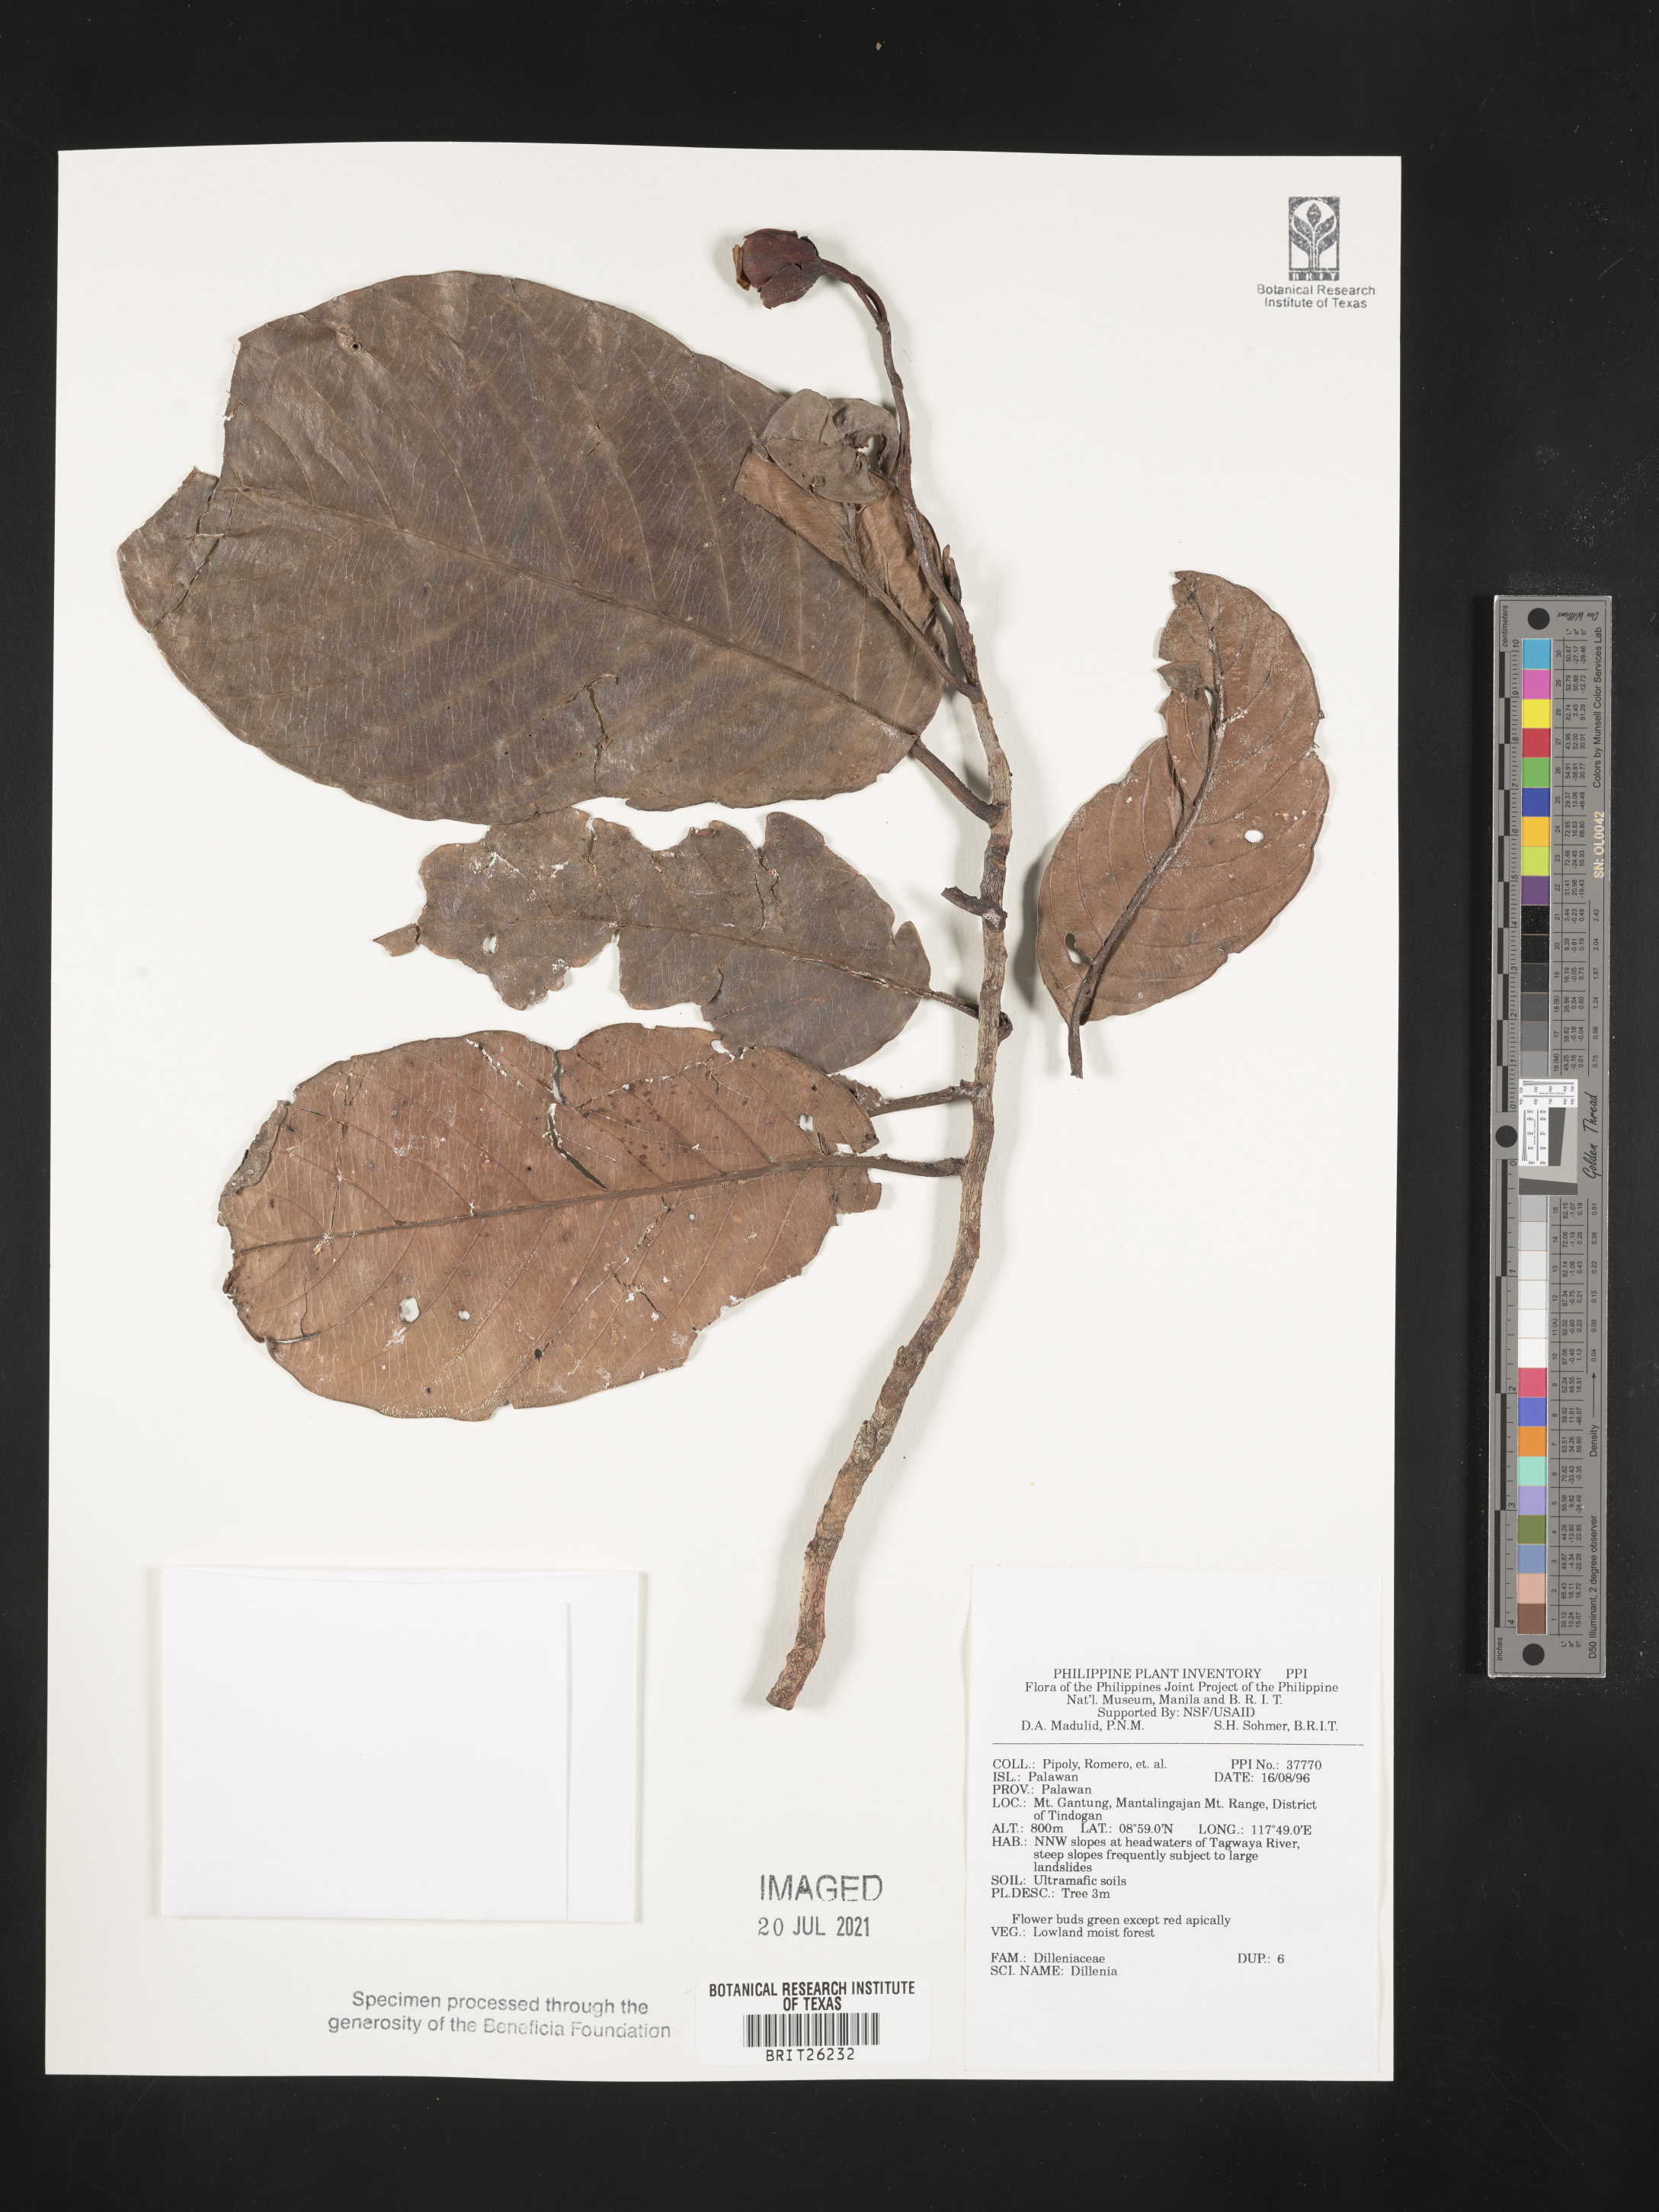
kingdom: Plantae
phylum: Tracheophyta
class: Magnoliopsida
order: Dilleniales
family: Dilleniaceae
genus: Dillenia
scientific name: Dillenia
